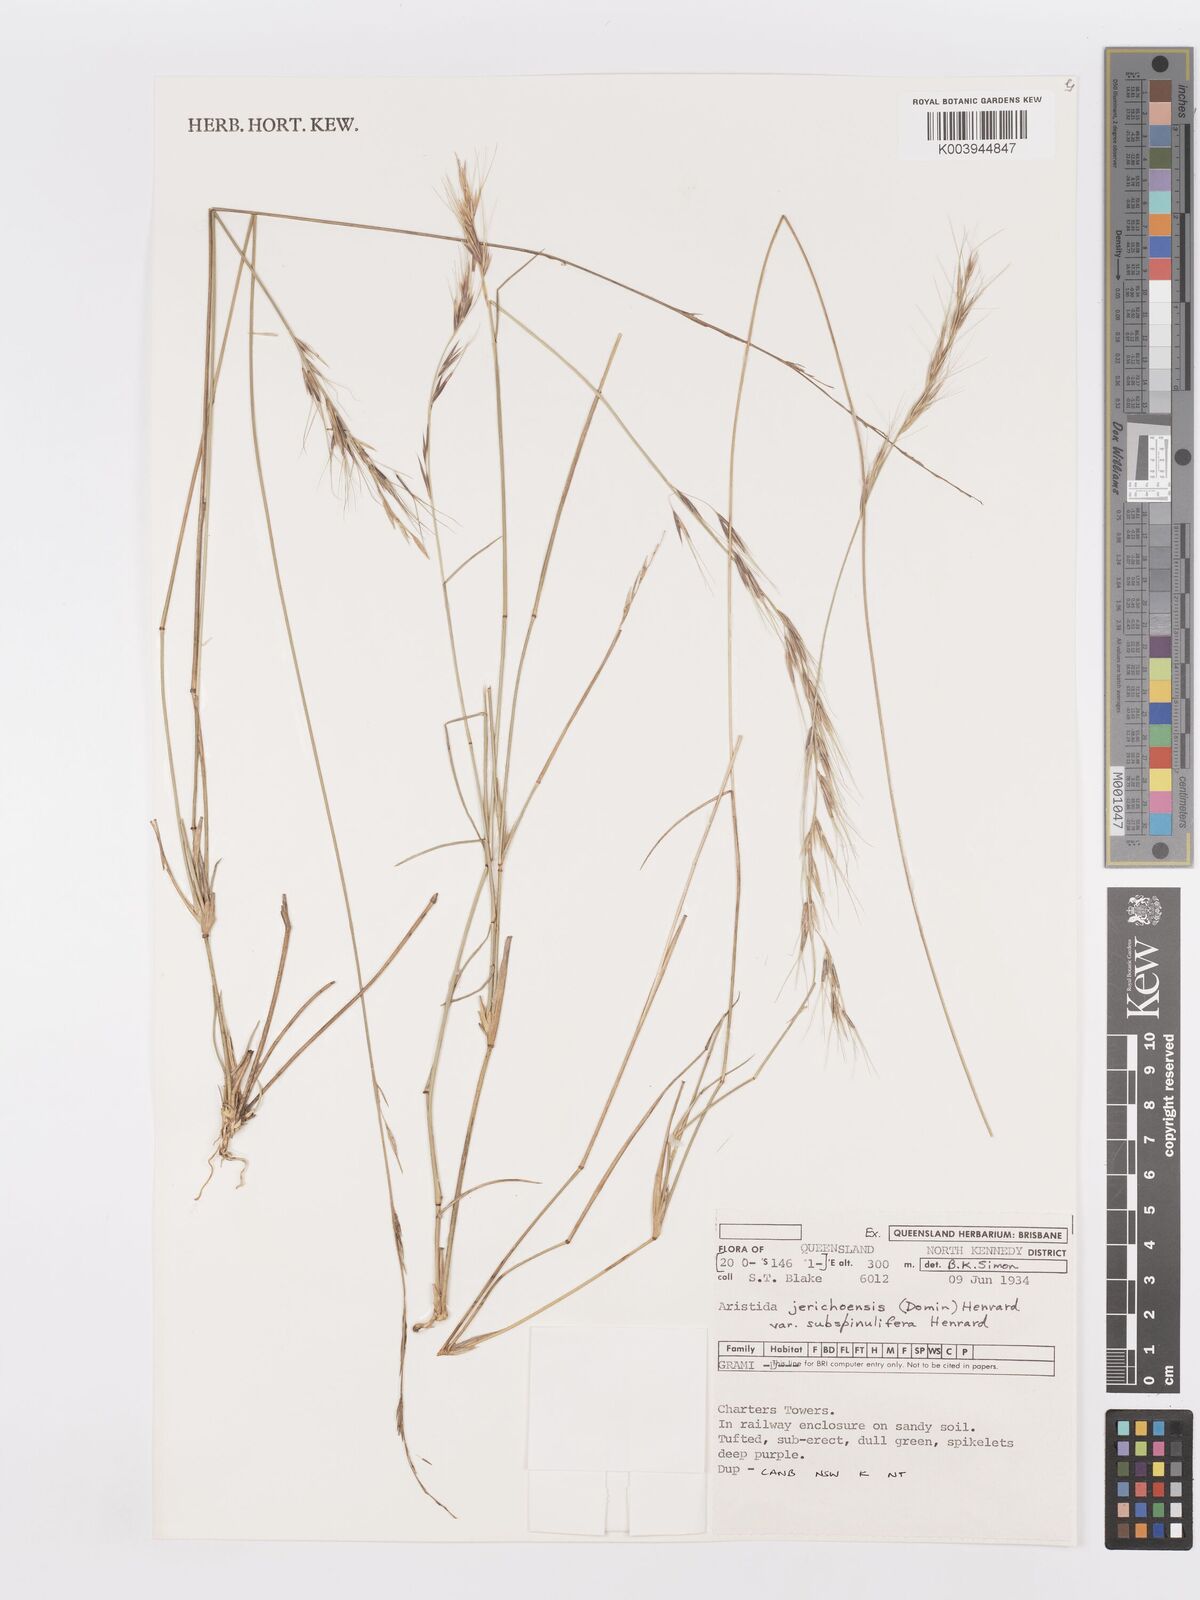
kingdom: Plantae
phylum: Tracheophyta
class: Liliopsida
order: Poales
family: Poaceae
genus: Aristida
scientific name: Aristida jerichoensis
